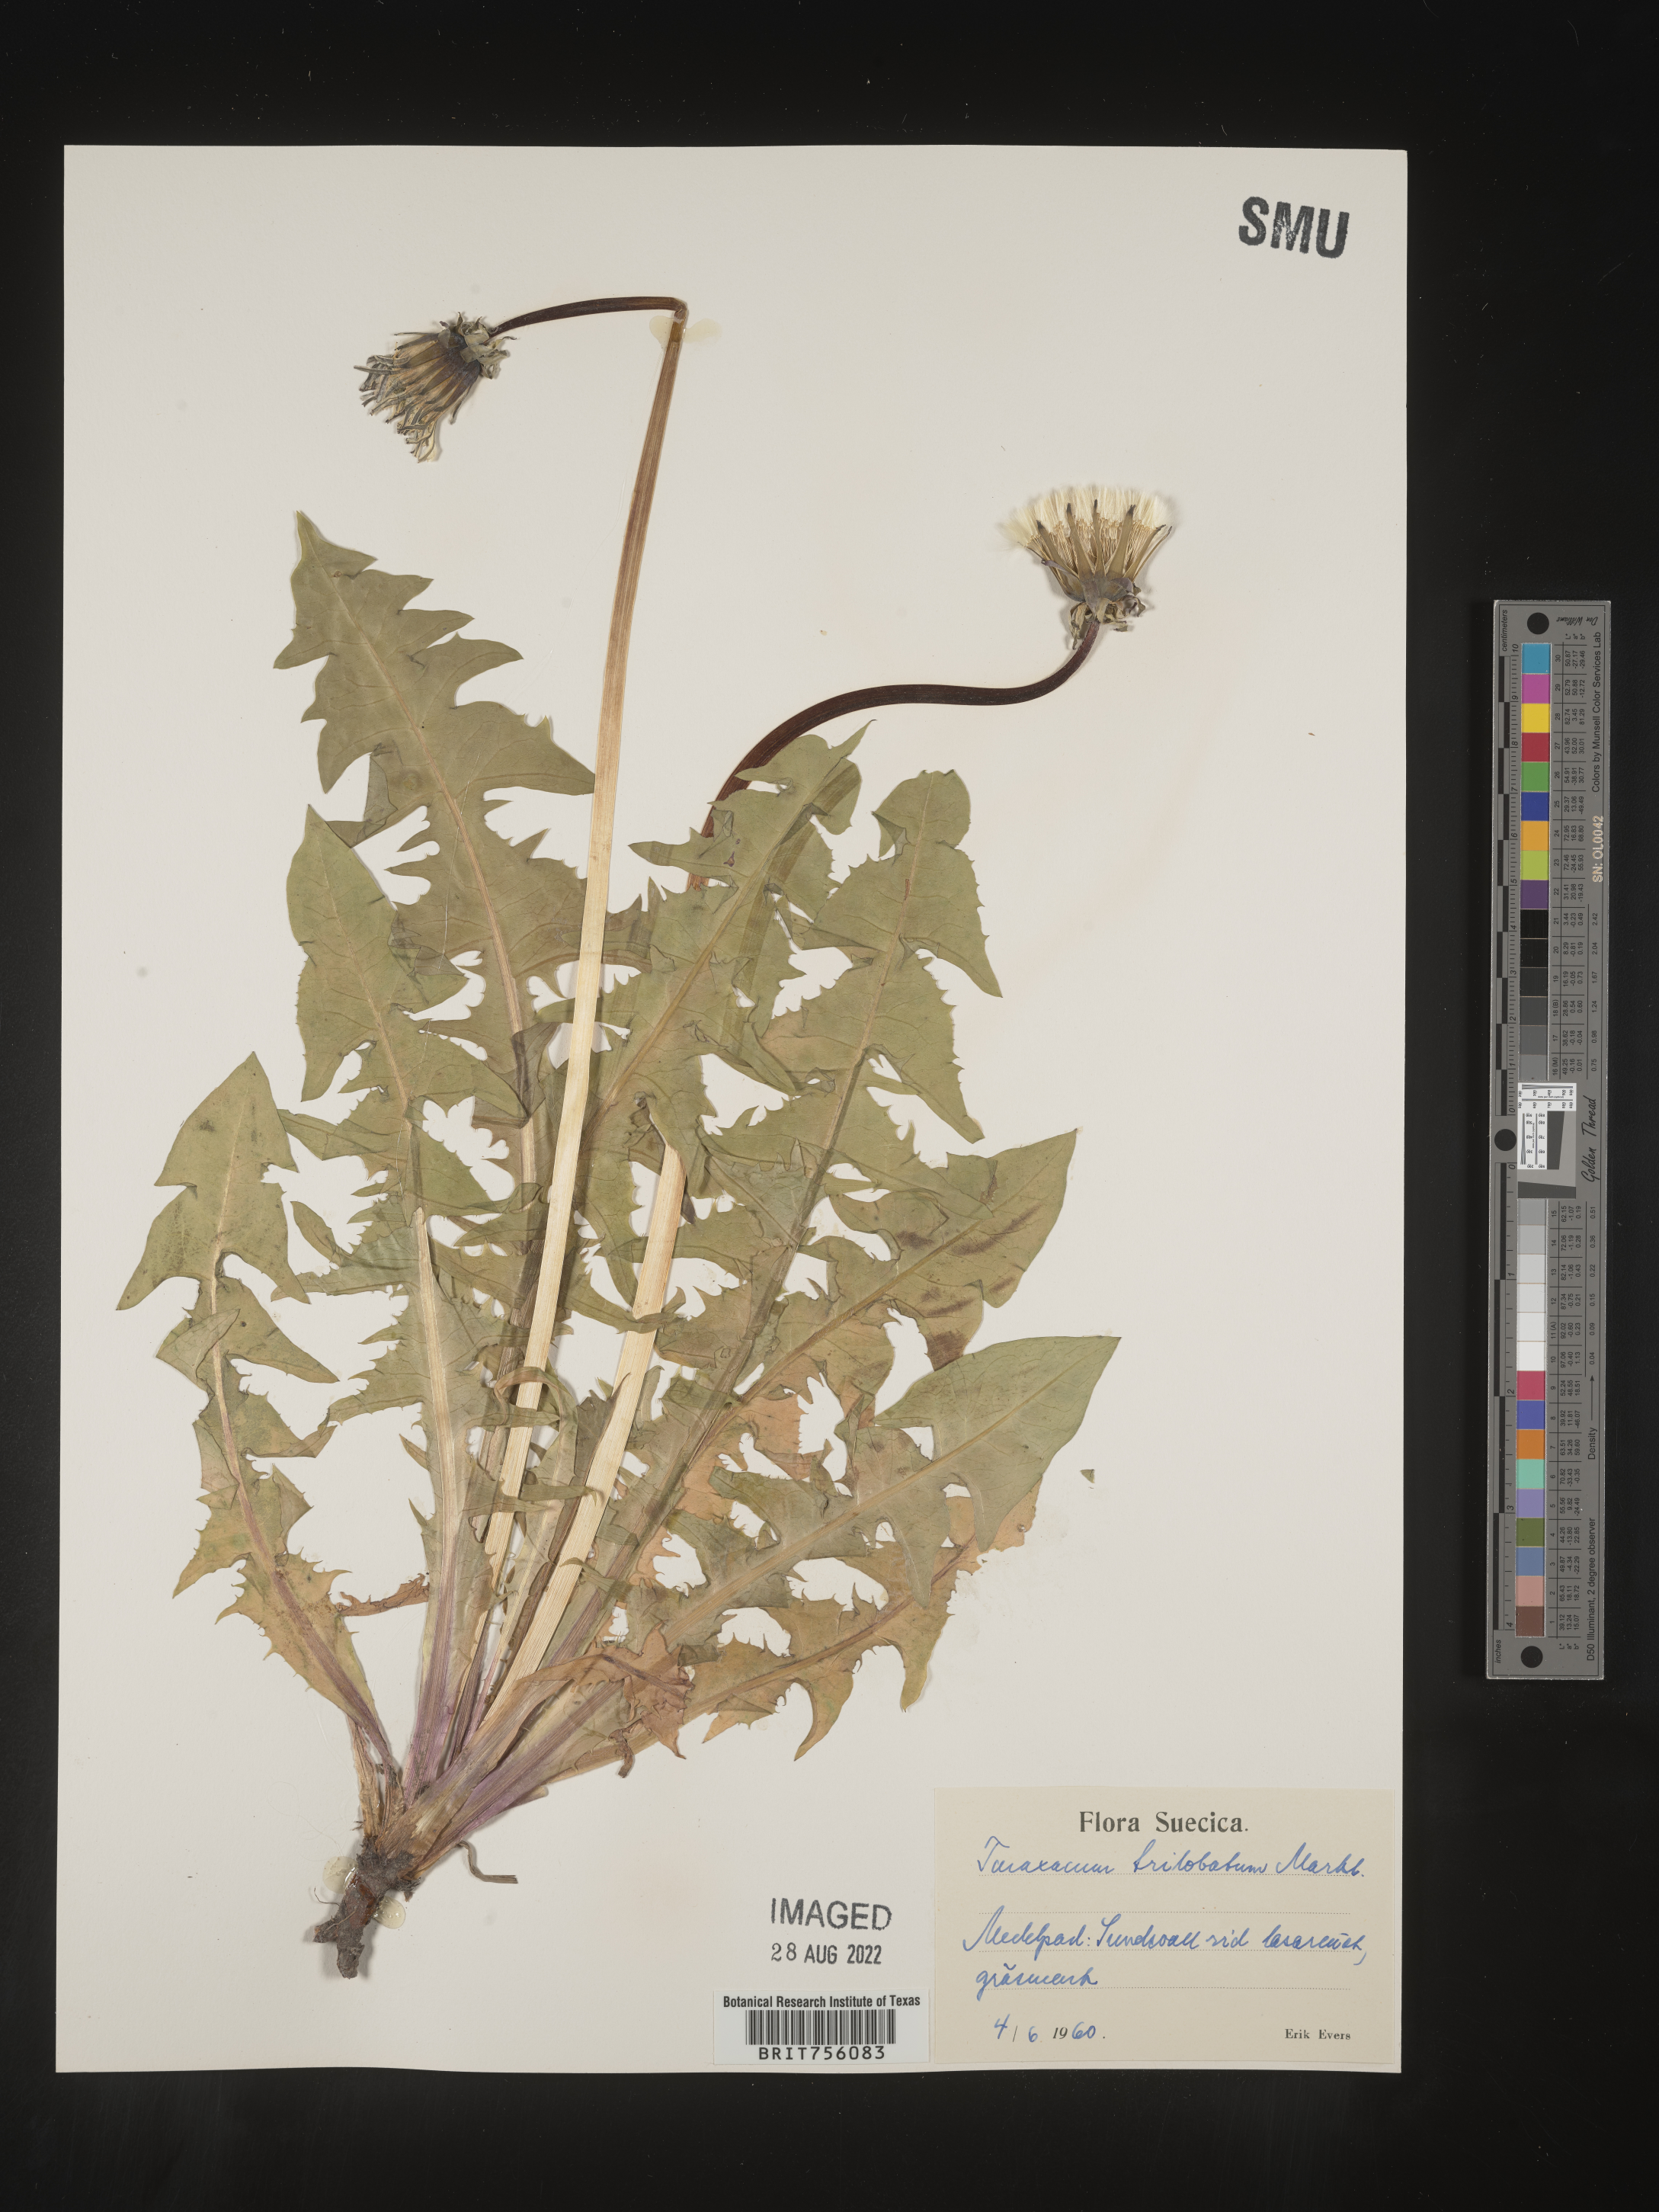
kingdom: Plantae
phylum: Tracheophyta
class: Magnoliopsida
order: Asterales
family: Asteraceae
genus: Taraxacum
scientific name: Taraxacum
